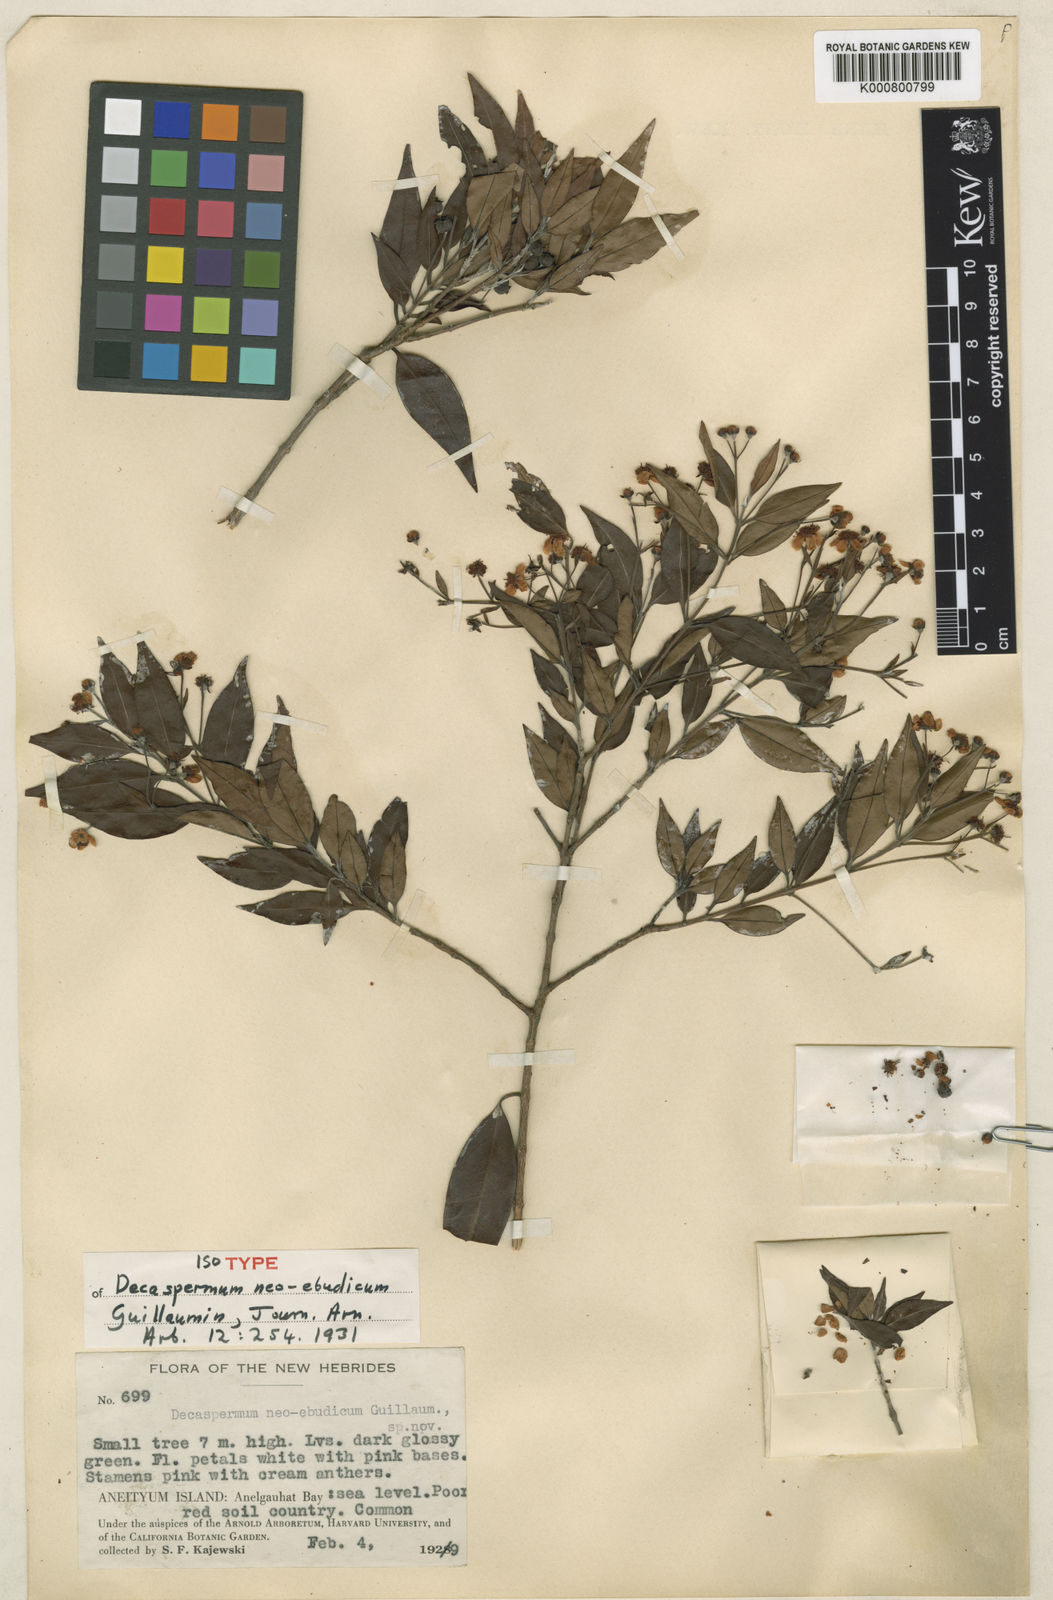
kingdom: Plantae
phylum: Tracheophyta
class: Magnoliopsida
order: Myrtales
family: Myrtaceae
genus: Decaspermum
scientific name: Decaspermum neoebudicum
